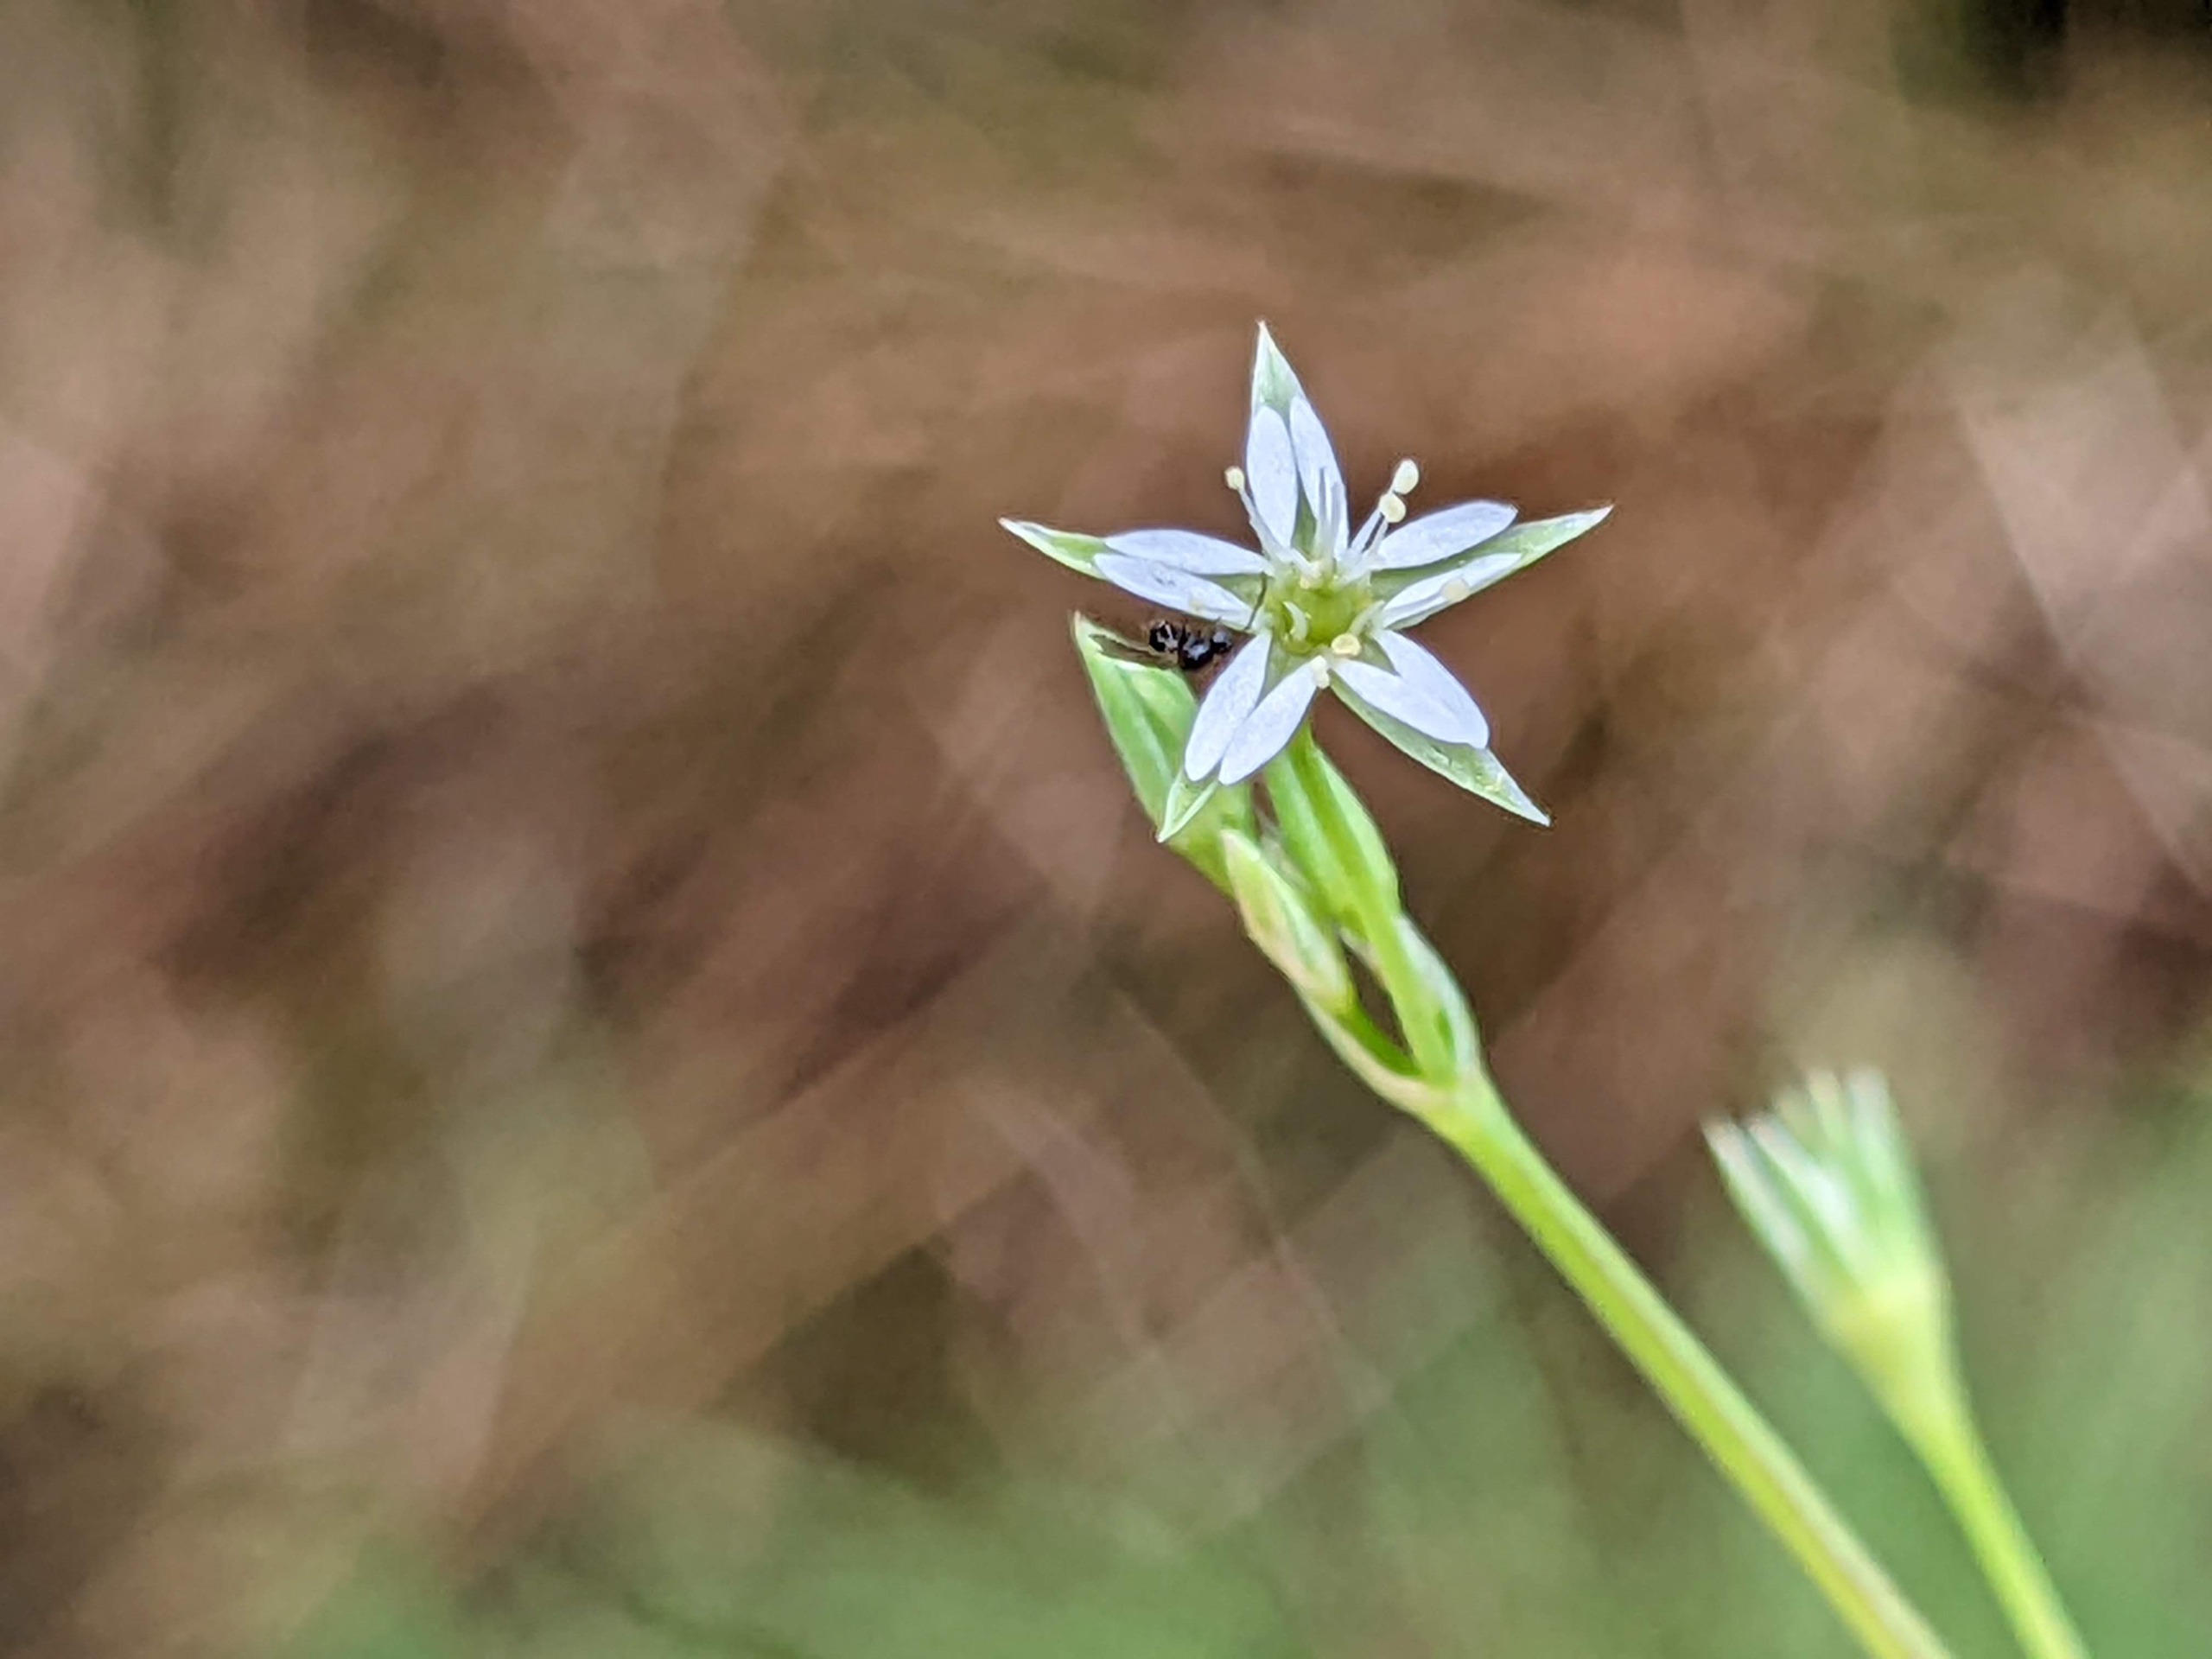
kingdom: Plantae
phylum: Tracheophyta
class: Magnoliopsida
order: Caryophyllales
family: Caryophyllaceae
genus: Stellaria
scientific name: Stellaria alsine
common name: Sump-fladstjerne
